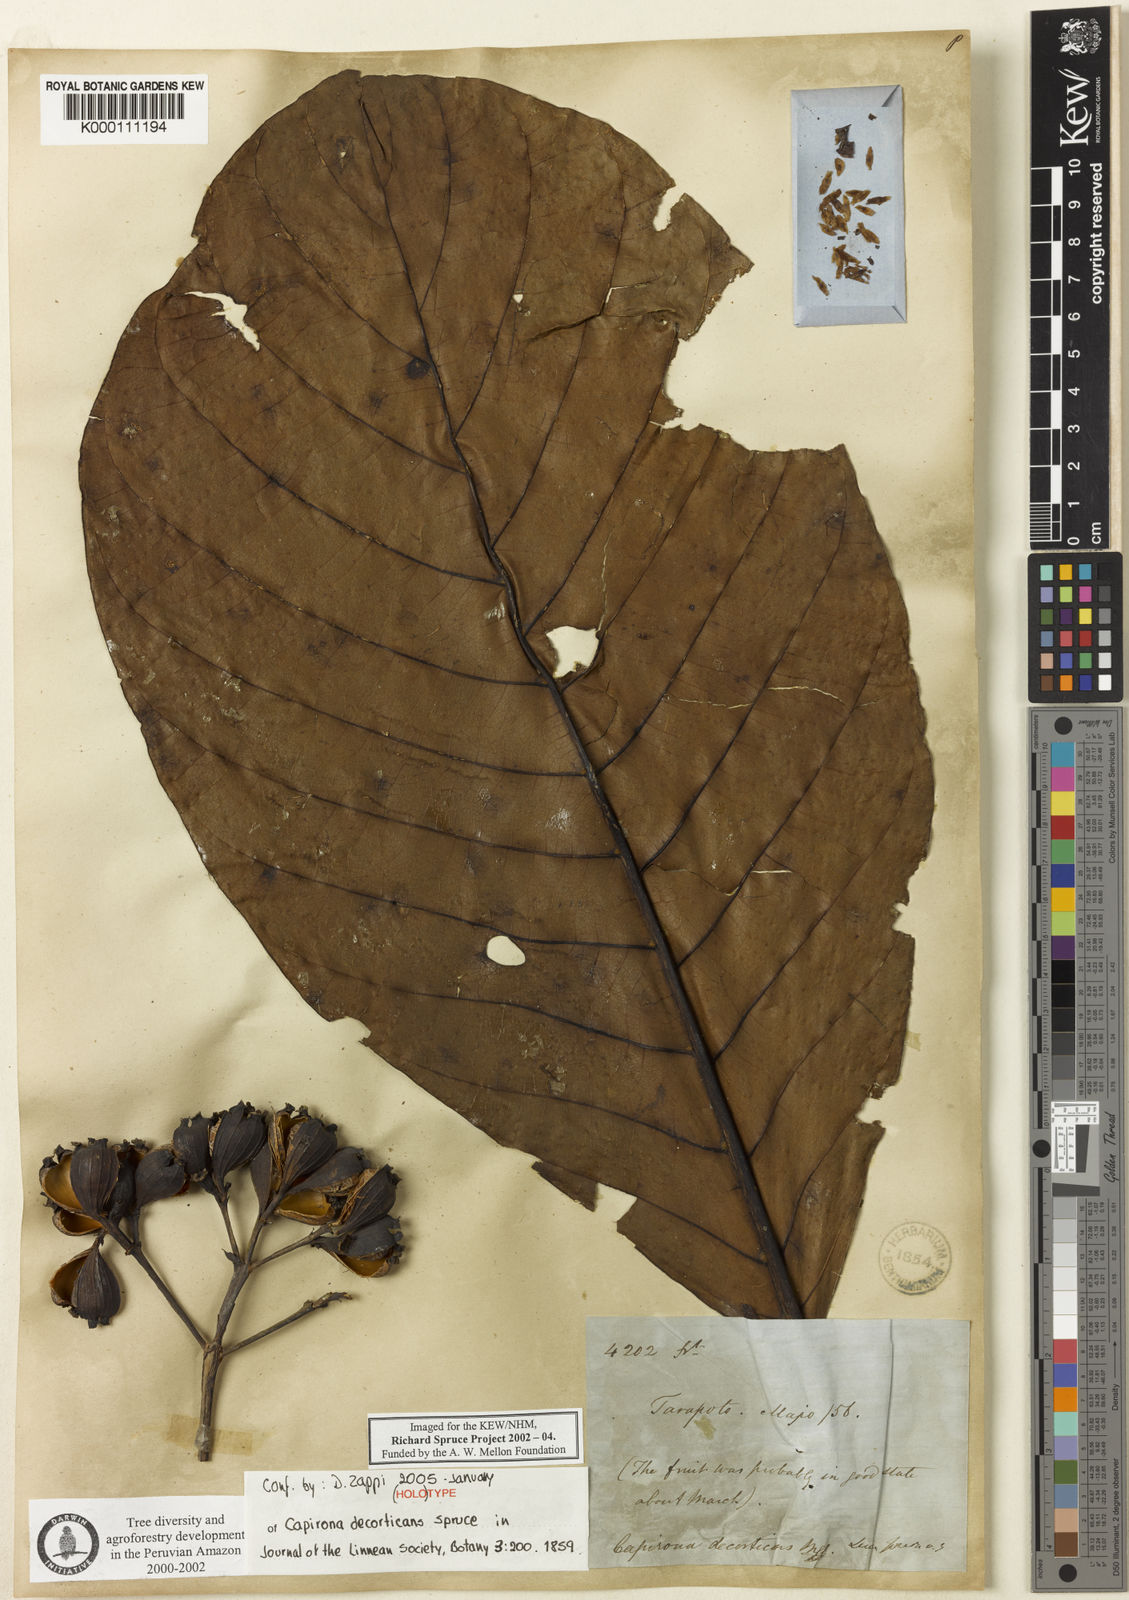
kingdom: Plantae
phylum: Tracheophyta
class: Magnoliopsida
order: Gentianales
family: Rubiaceae
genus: Capirona
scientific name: Capirona macrophylla
